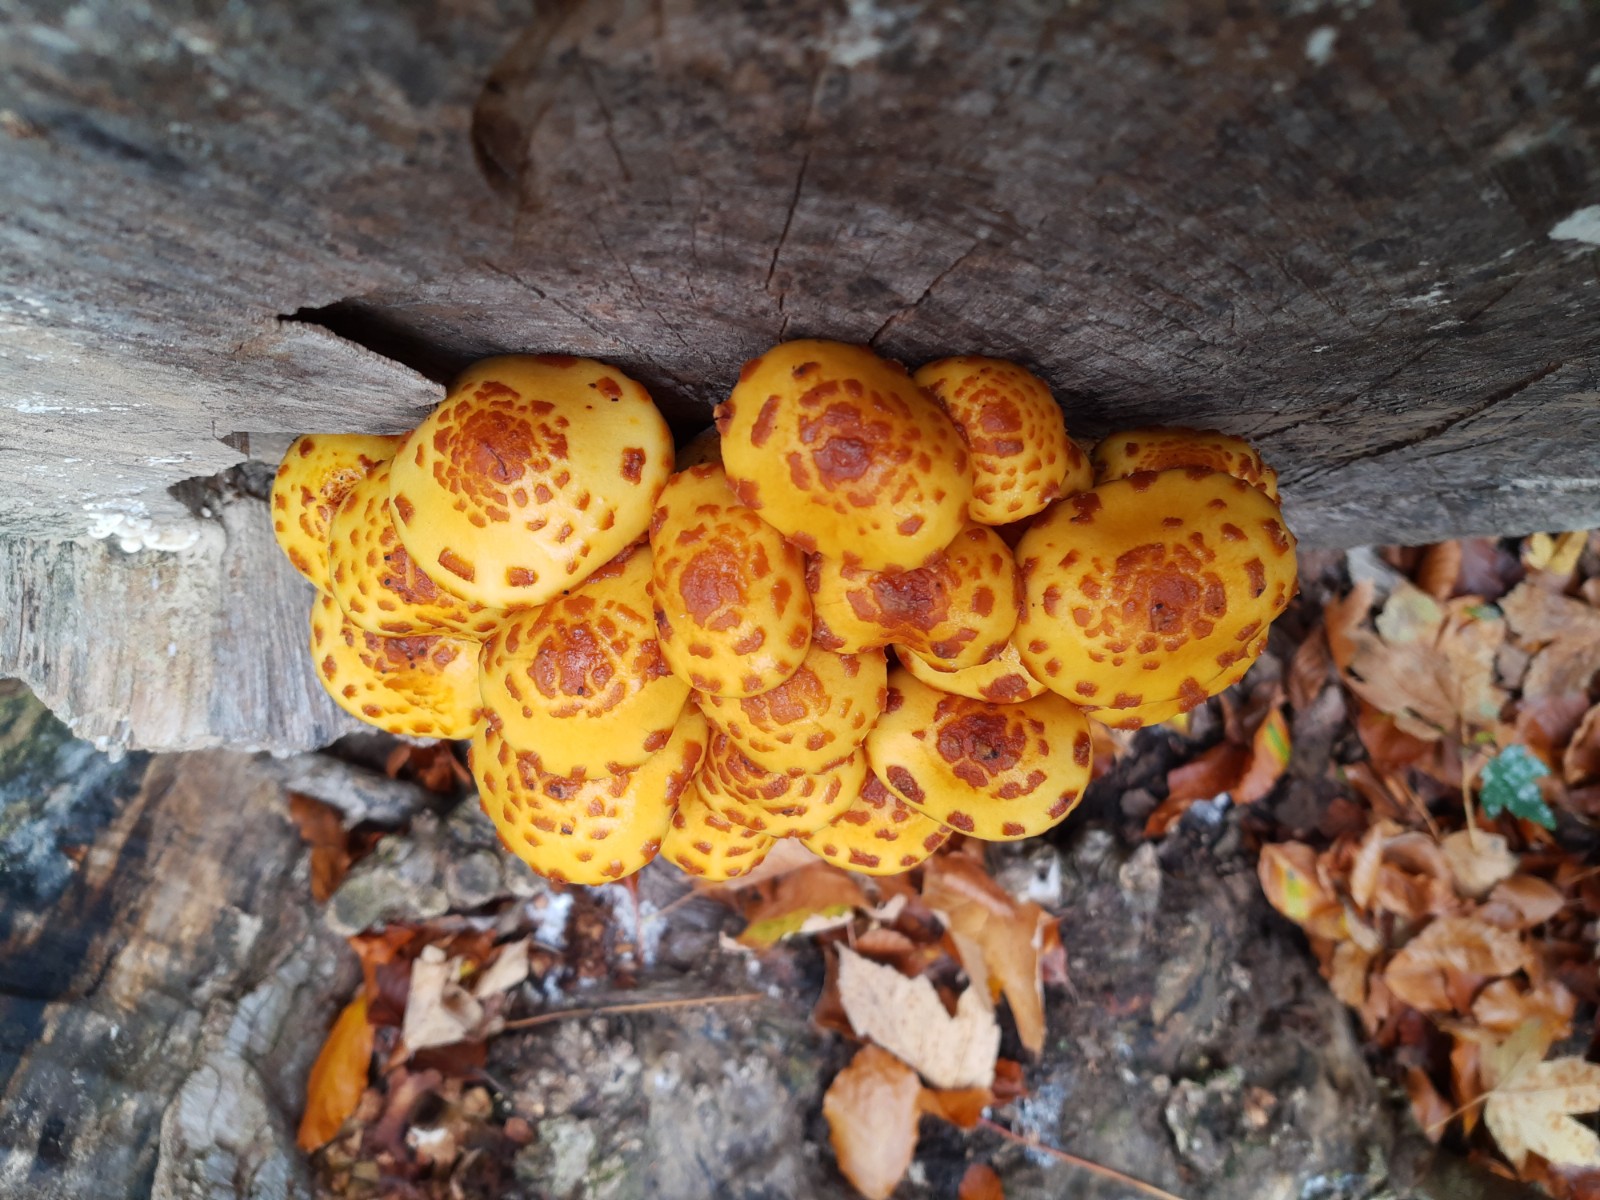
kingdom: Fungi
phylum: Basidiomycota
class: Agaricomycetes
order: Agaricales
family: Strophariaceae
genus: Pholiota
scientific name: Pholiota adiposa
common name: højtsiddende skælhat
